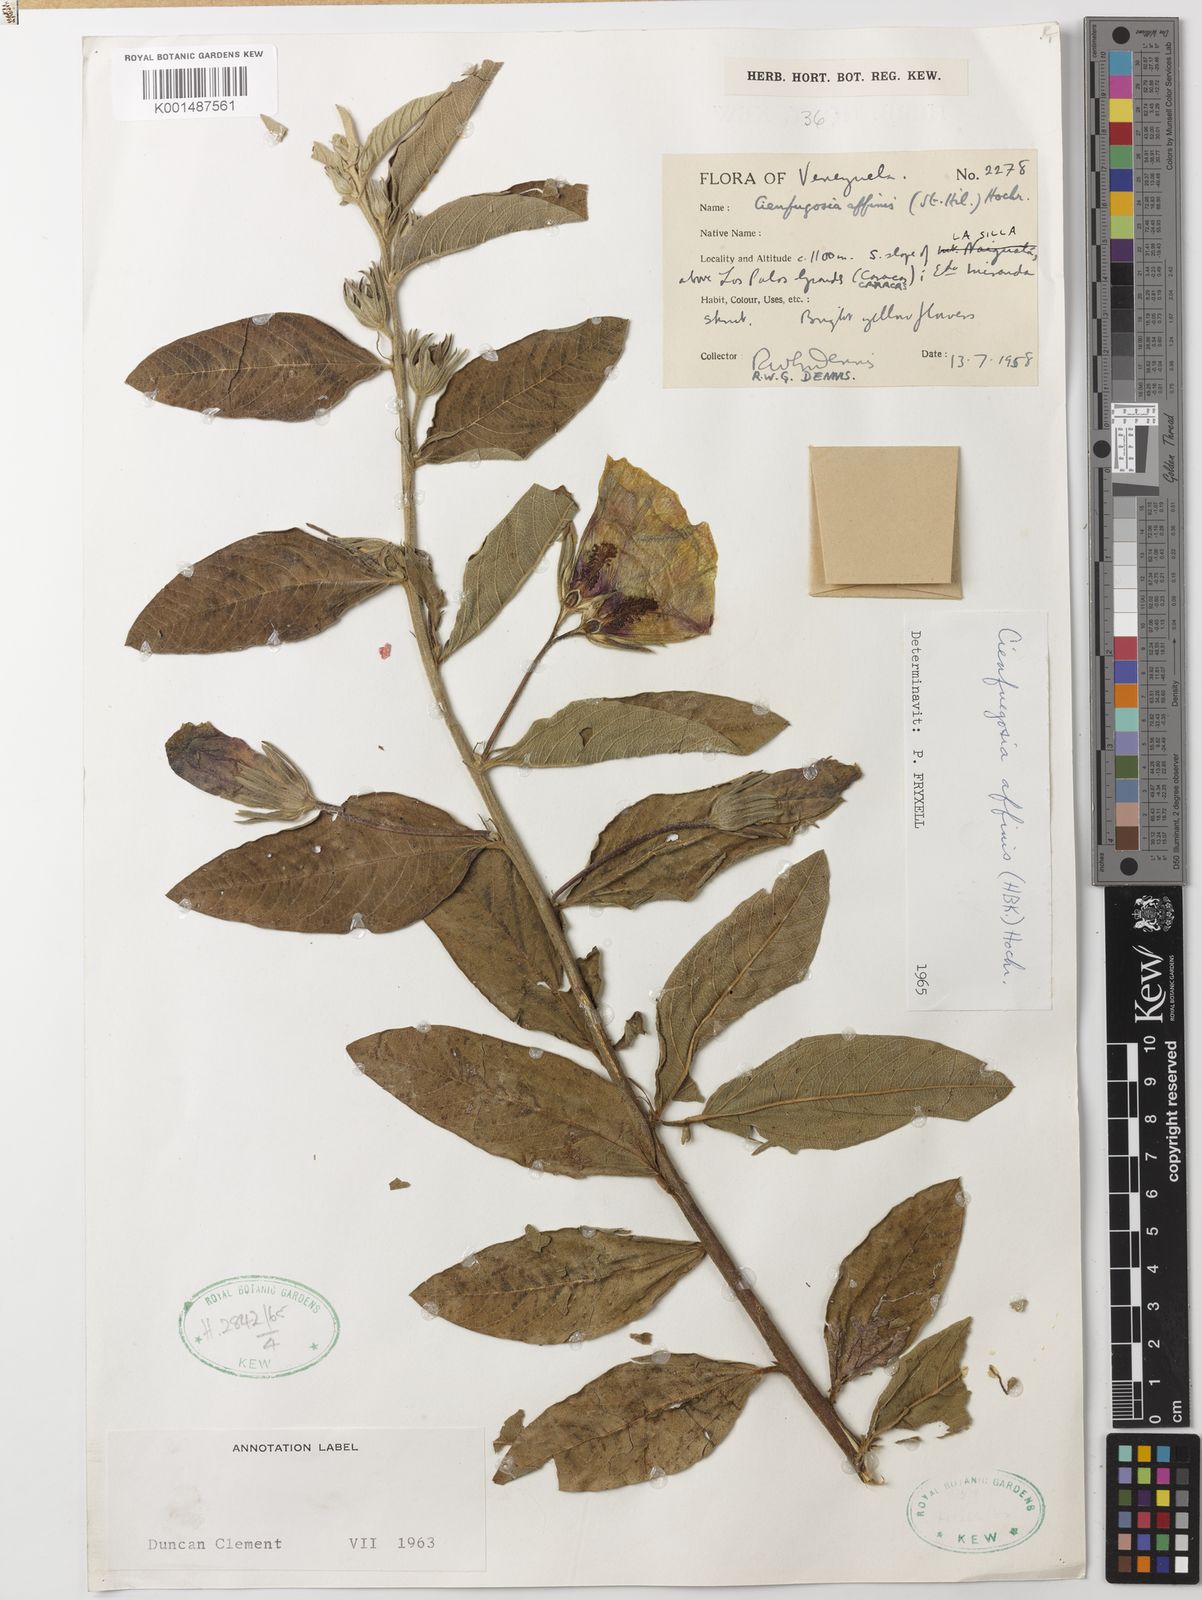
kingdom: Plantae
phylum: Tracheophyta
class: Magnoliopsida
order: Malvales
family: Malvaceae
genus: Cienfuegosia
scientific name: Cienfuegosia affinis
